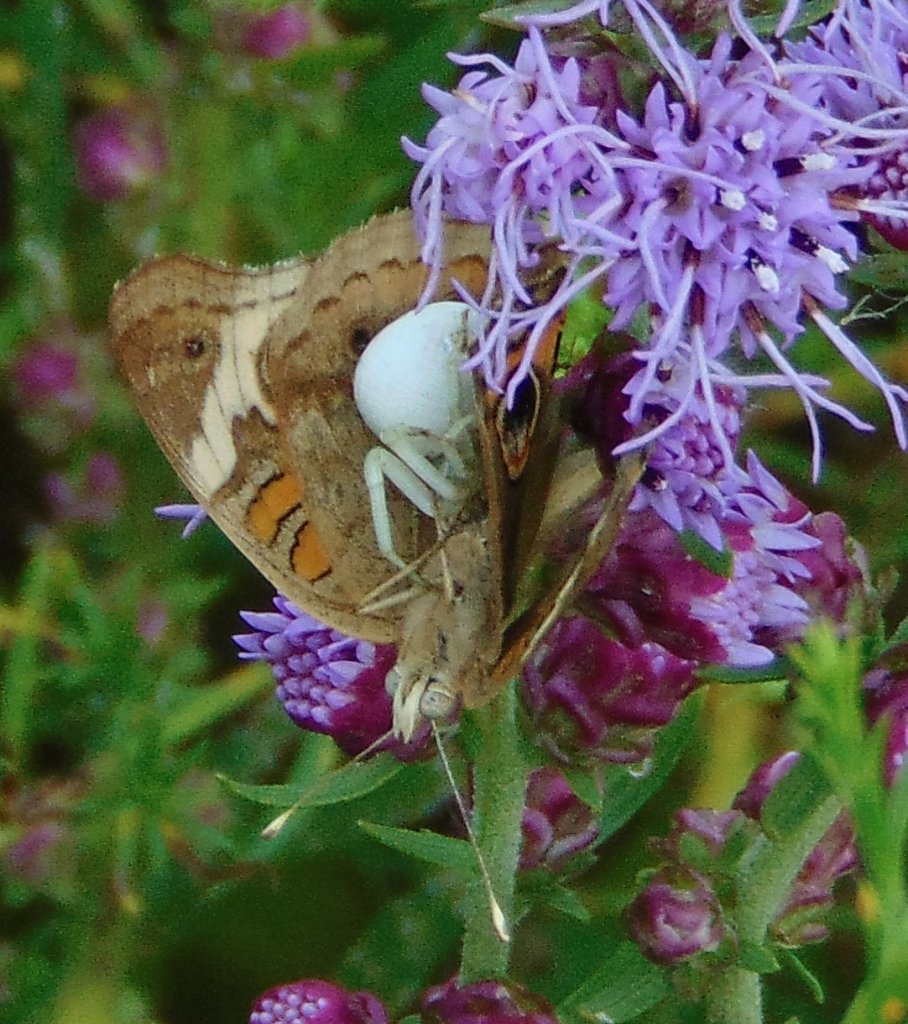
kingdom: Animalia
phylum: Arthropoda
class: Insecta
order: Lepidoptera
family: Nymphalidae
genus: Junonia
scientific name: Junonia coenia
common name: Common Buckeye
